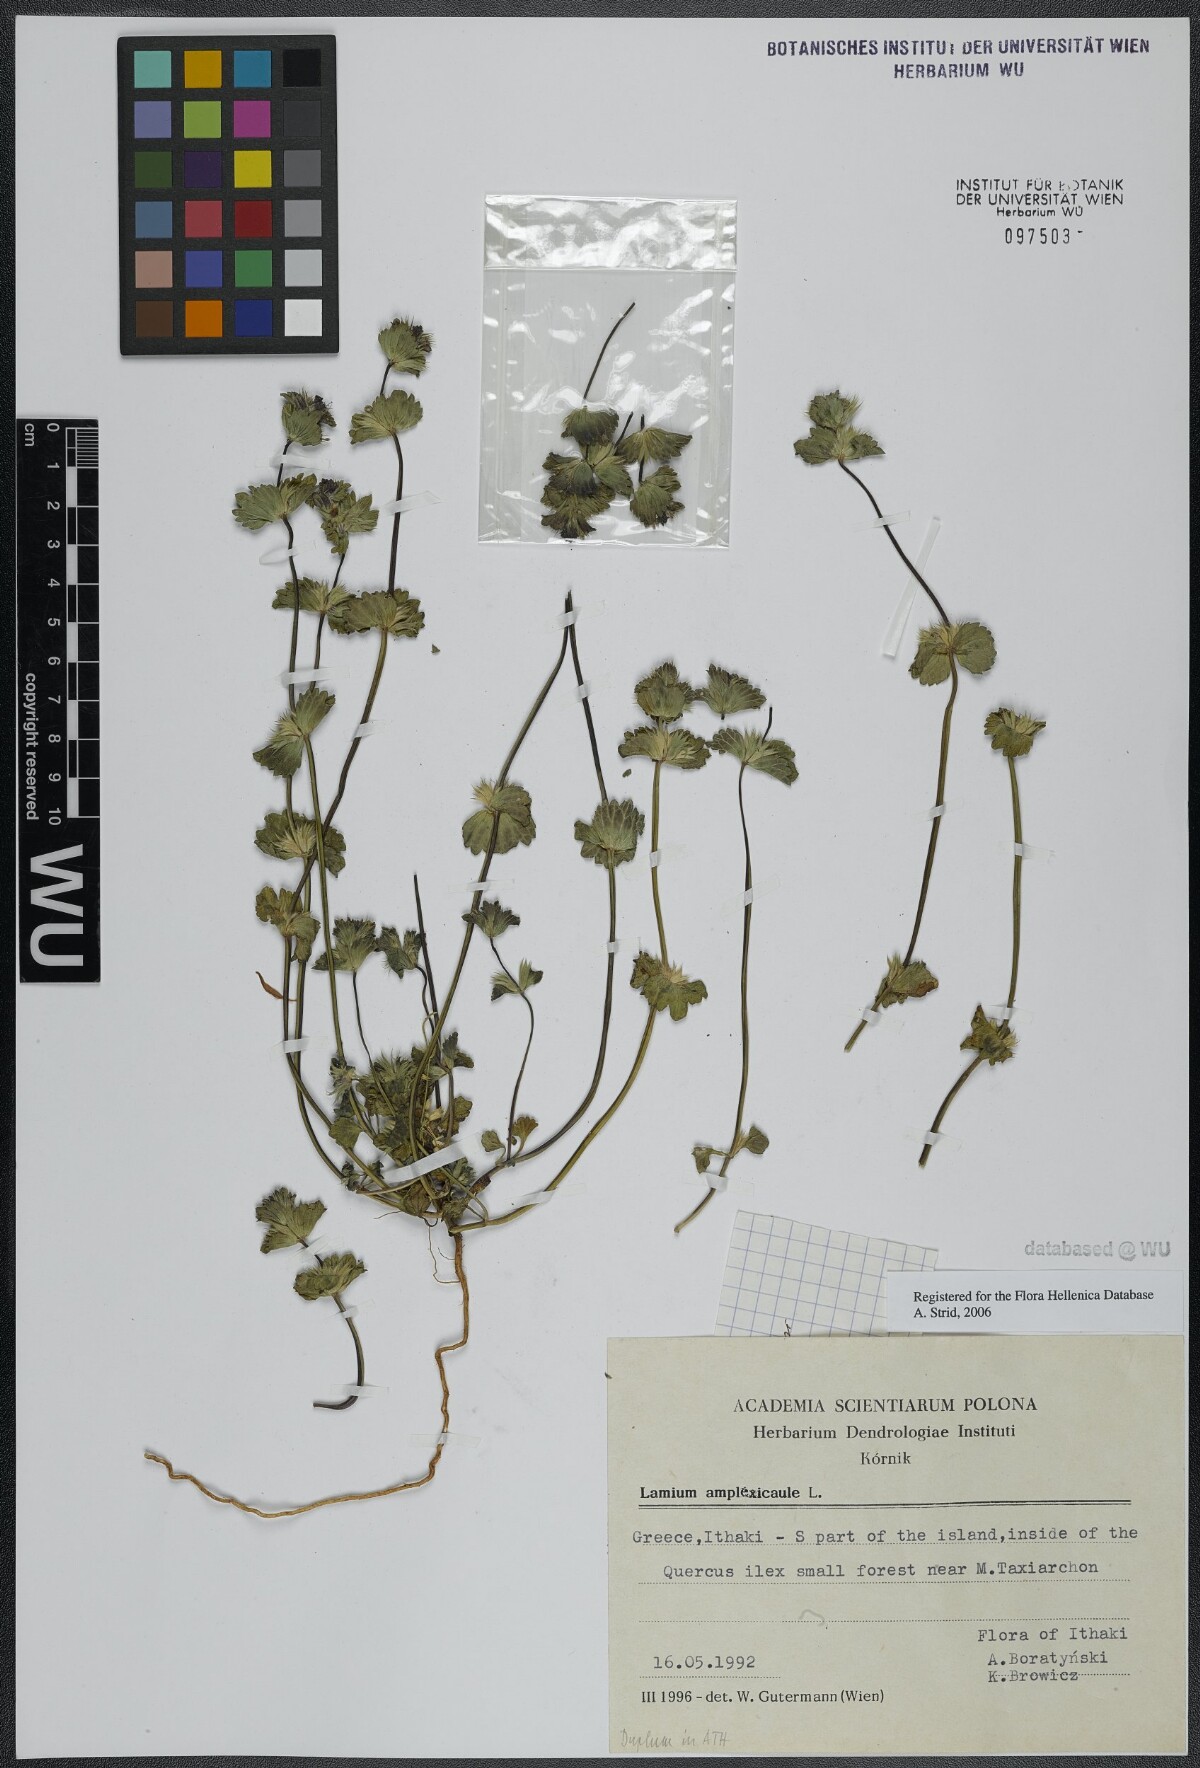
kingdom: Plantae
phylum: Tracheophyta
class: Magnoliopsida
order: Lamiales
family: Lamiaceae
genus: Lamium
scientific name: Lamium amplexicaule
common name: Henbit dead-nettle
